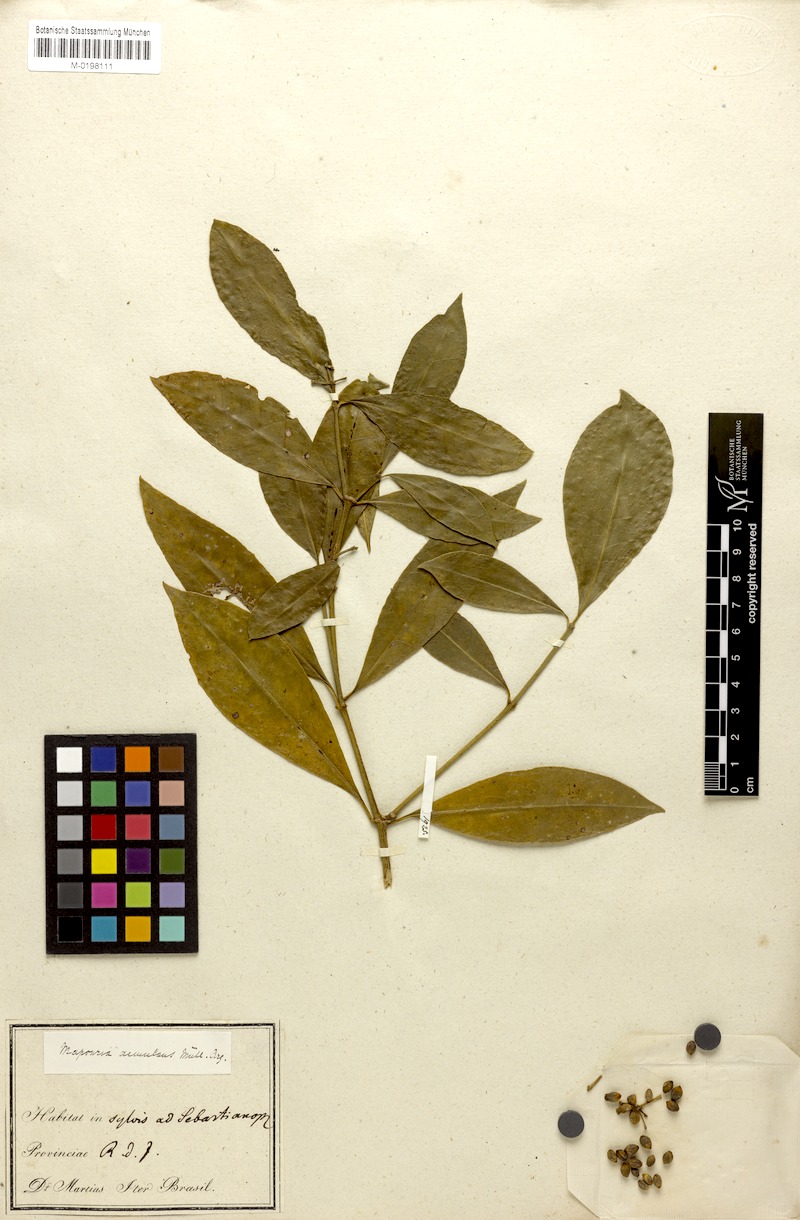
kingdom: Plantae
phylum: Tracheophyta
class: Magnoliopsida
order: Gentianales
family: Rubiaceae
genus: Eumachia
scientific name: Eumachia chaenotricha
